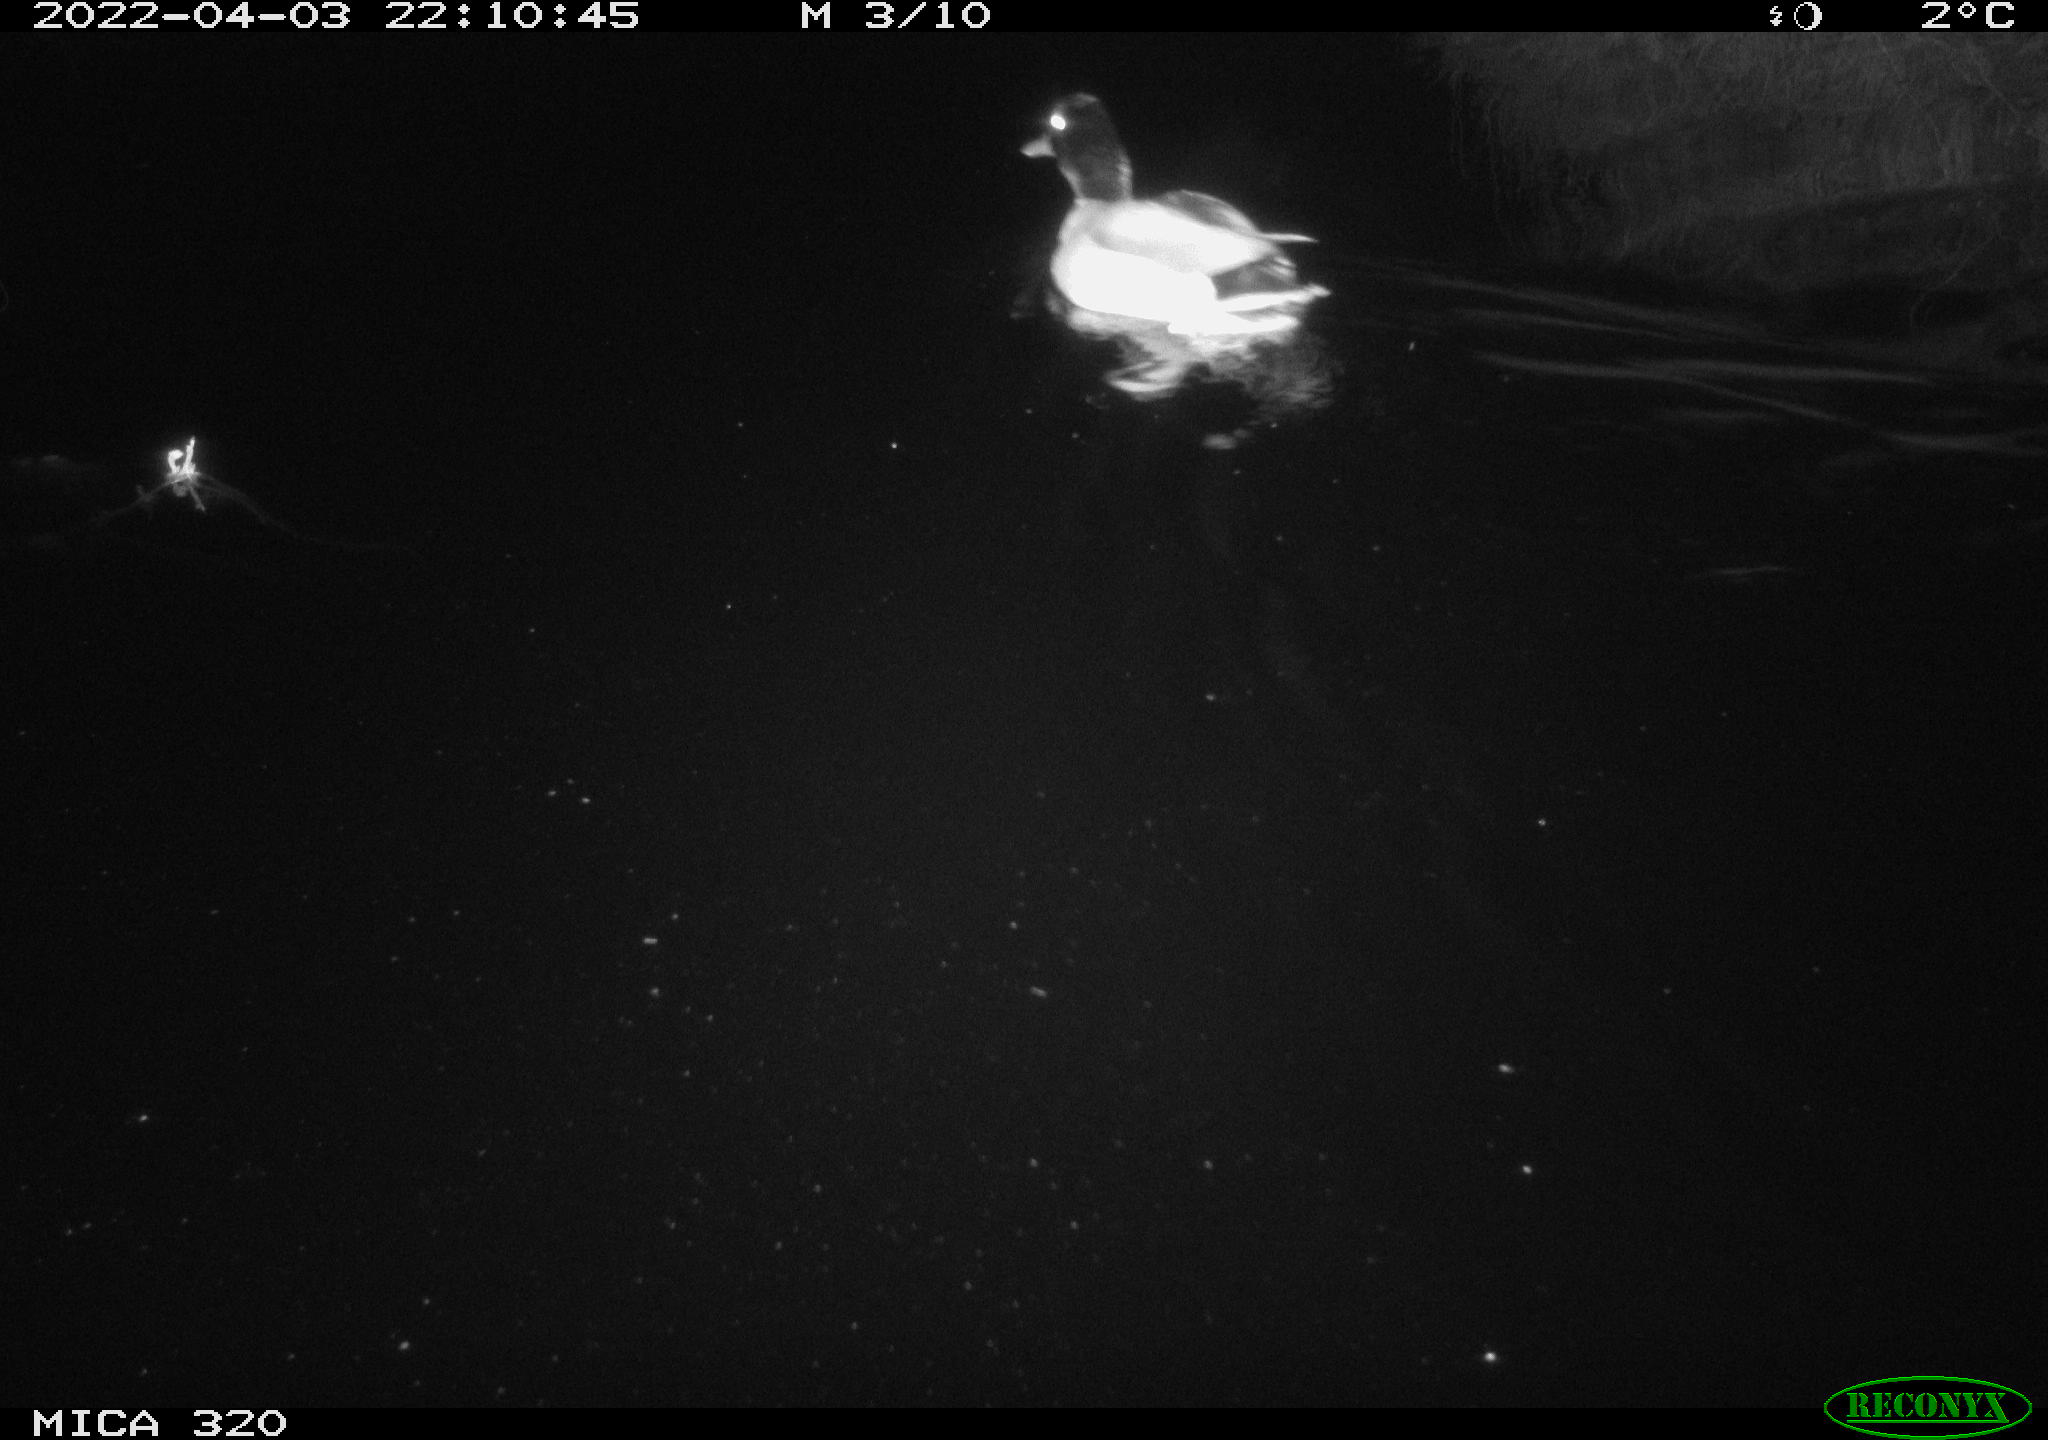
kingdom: Animalia
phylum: Chordata
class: Aves
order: Anseriformes
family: Anatidae
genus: Anas
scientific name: Anas platyrhynchos
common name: Mallard
